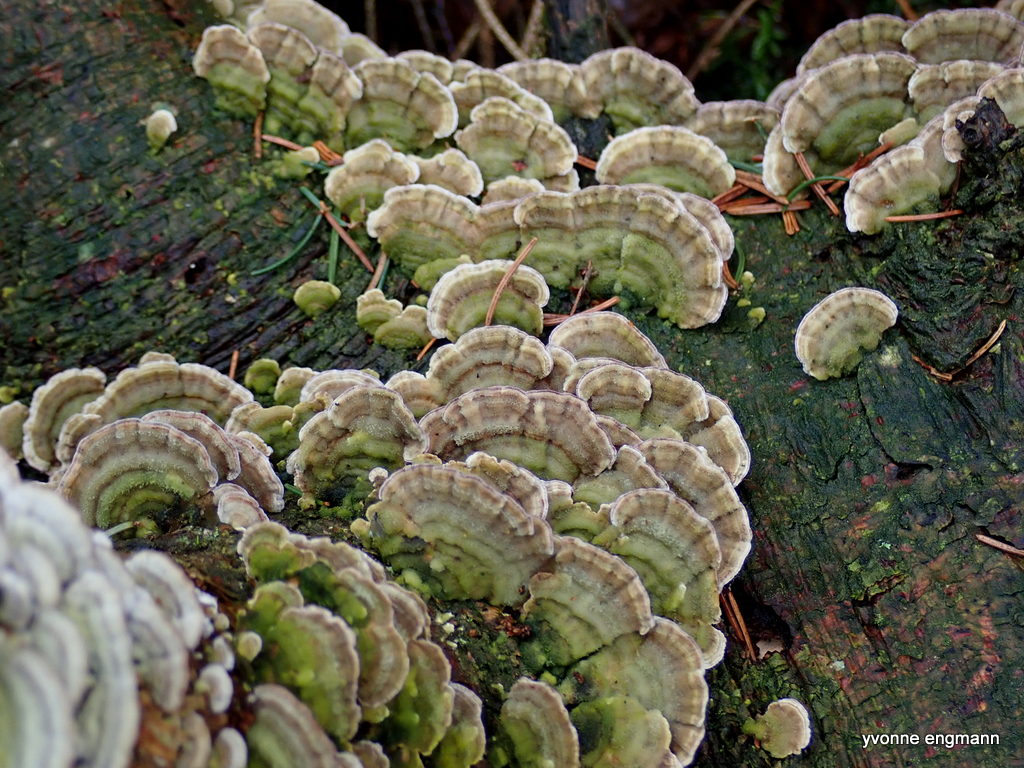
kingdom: Fungi
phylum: Basidiomycota
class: Agaricomycetes
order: Hymenochaetales
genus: Trichaptum
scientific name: Trichaptum abietinum
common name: almindelig violporesvamp
